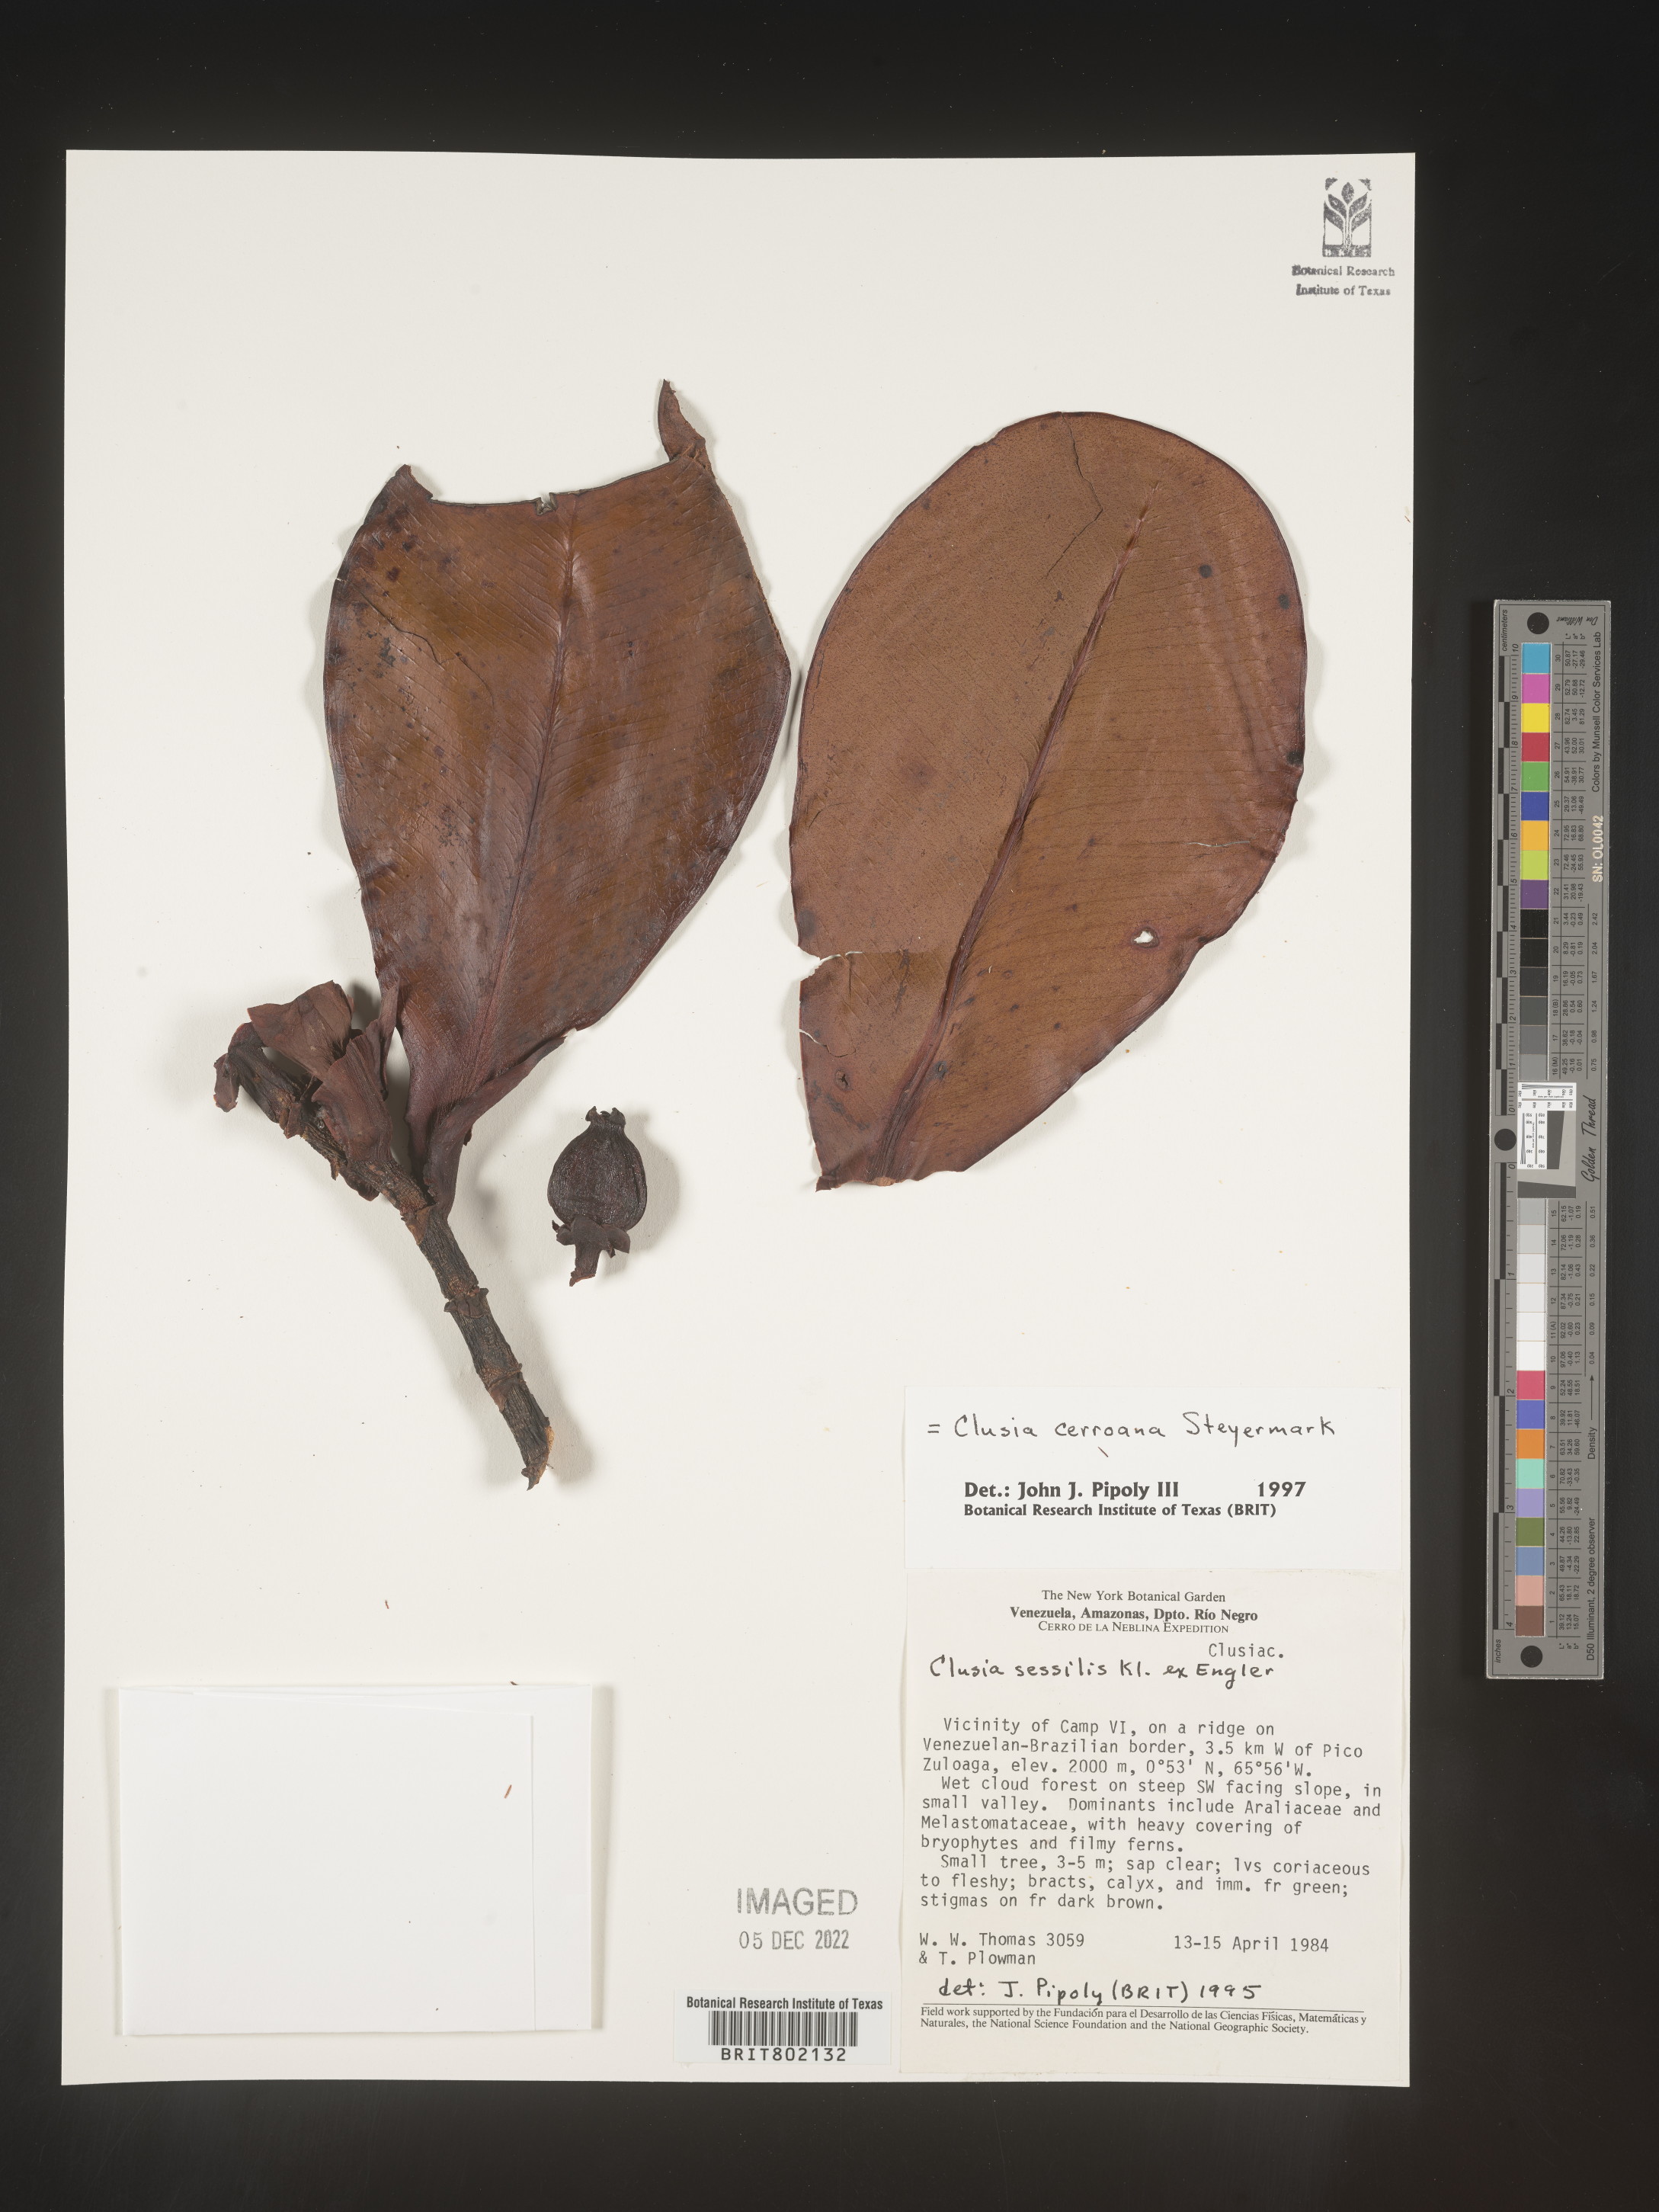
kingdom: Plantae
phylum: Tracheophyta
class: Magnoliopsida
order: Malpighiales
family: Clusiaceae
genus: Clusia
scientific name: Clusia cerroana
